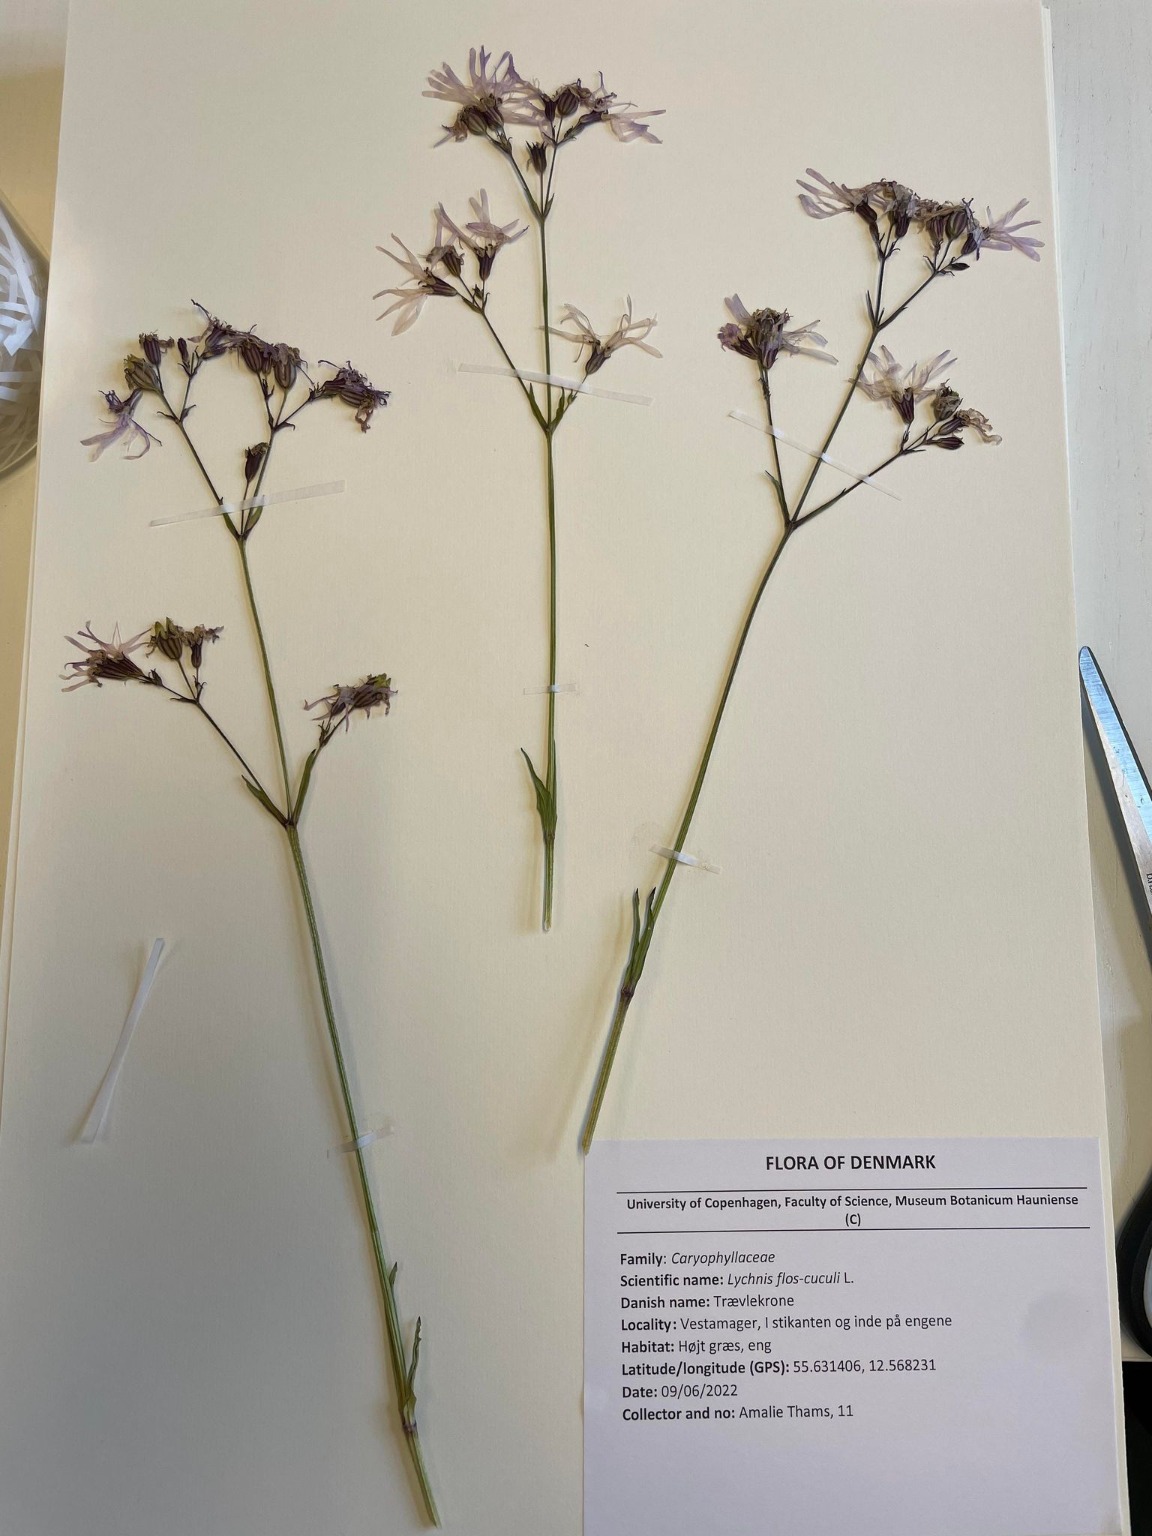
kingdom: Plantae
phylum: Tracheophyta
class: Magnoliopsida
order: Caryophyllales
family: Caryophyllaceae
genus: Silene
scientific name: Silene flos-cuculi
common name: Trævlekrone
